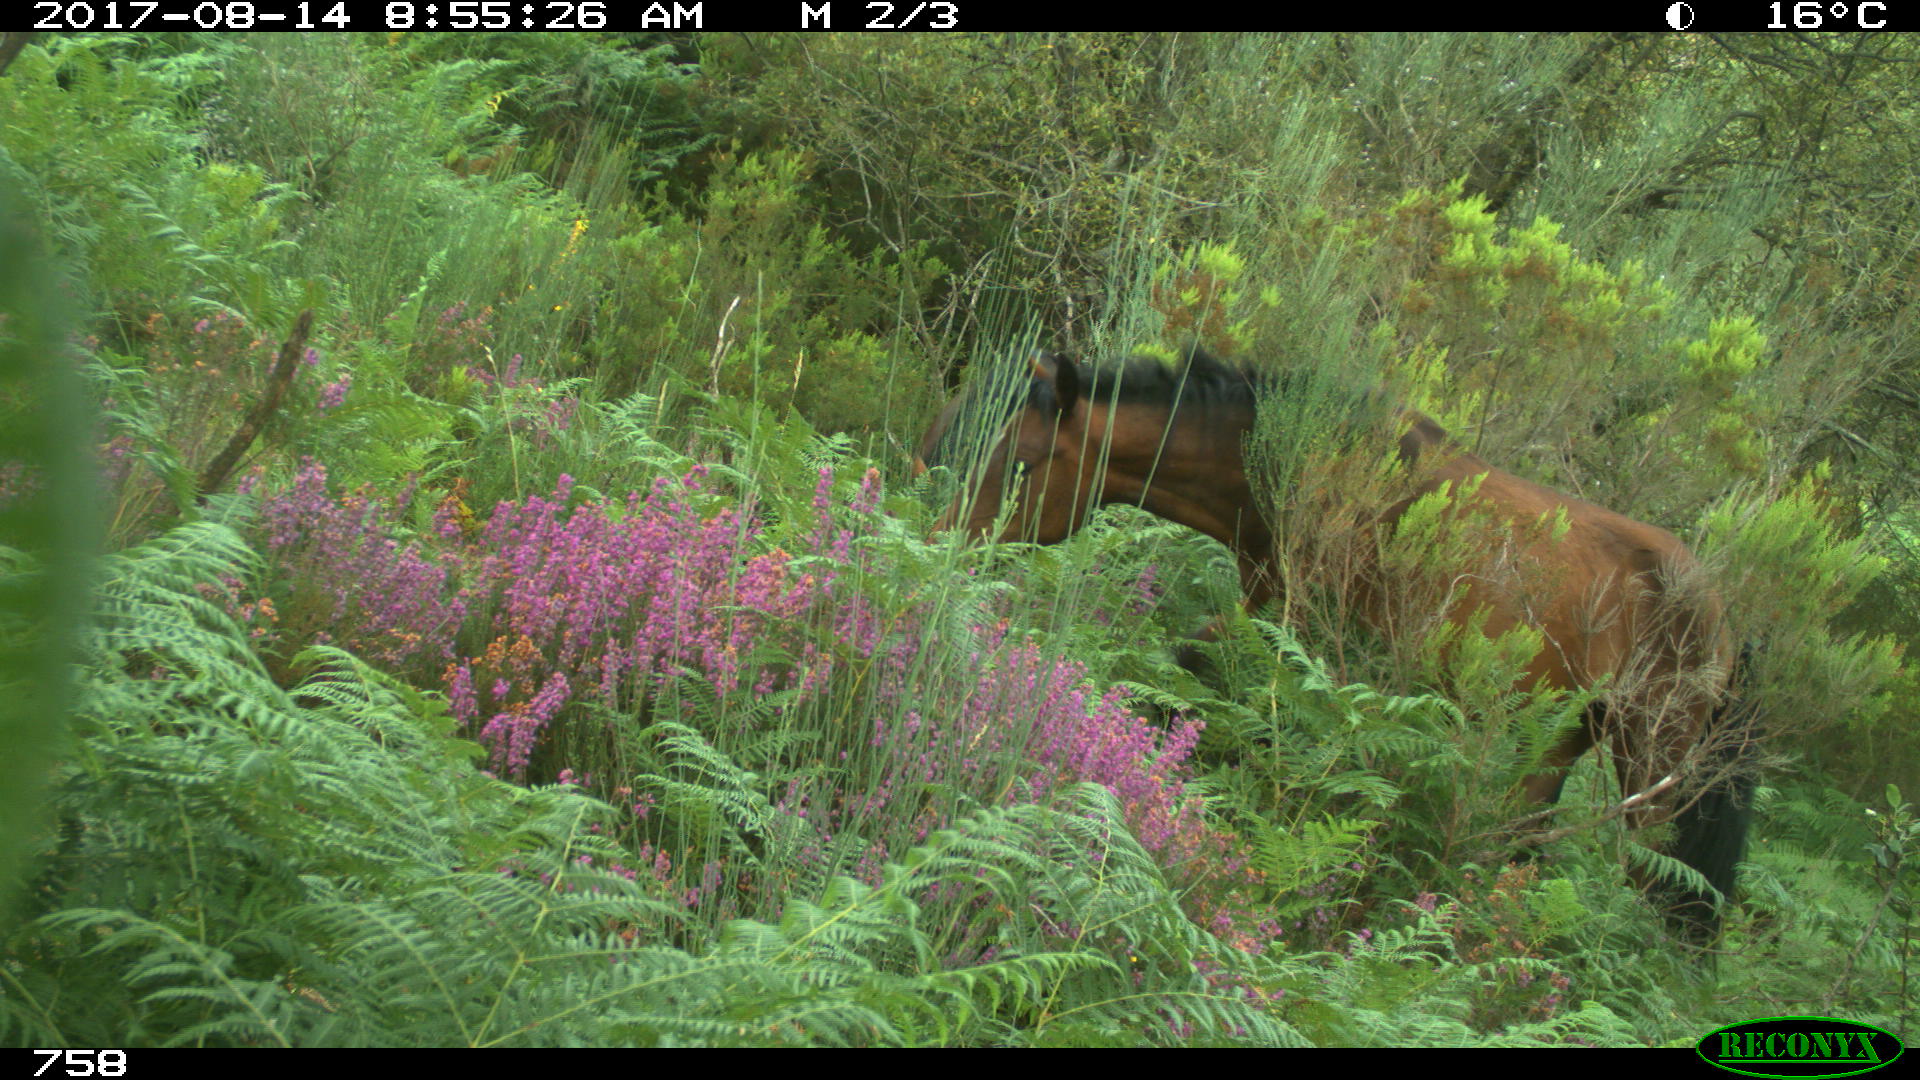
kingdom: Animalia
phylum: Chordata
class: Mammalia
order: Perissodactyla
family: Equidae
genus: Equus
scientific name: Equus caballus
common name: Horse
